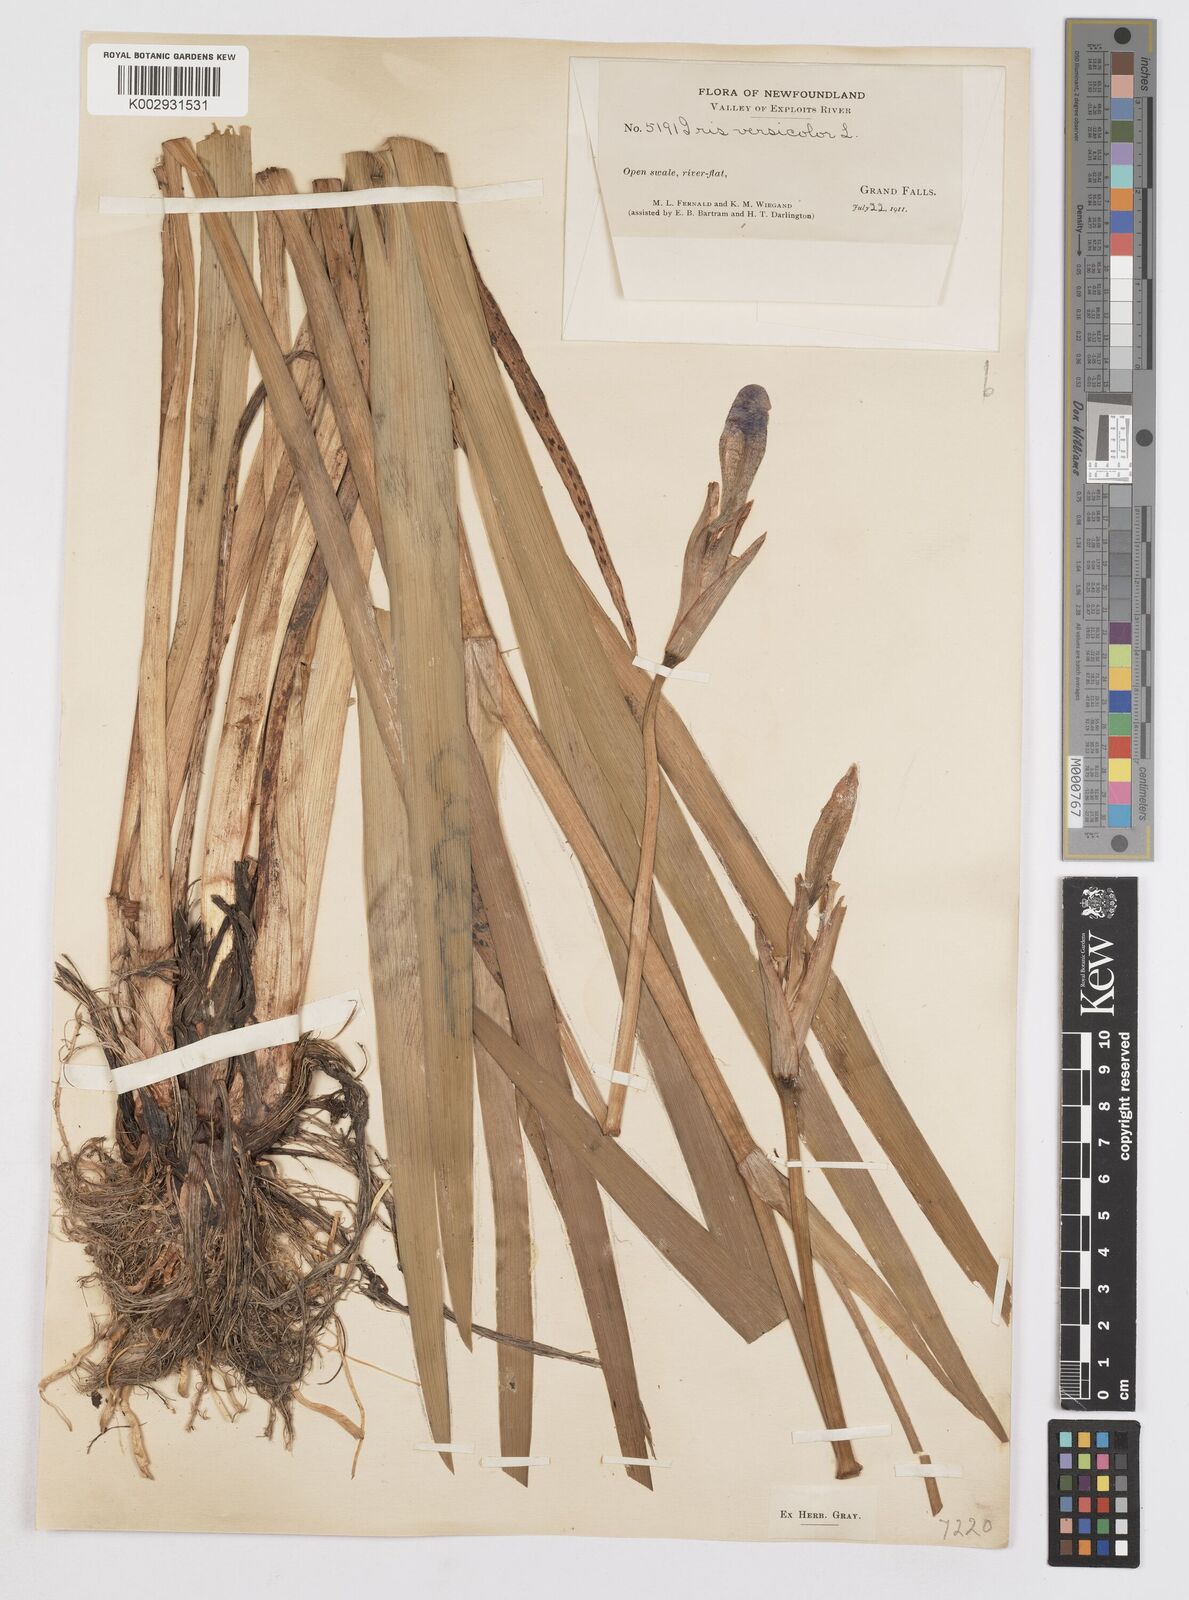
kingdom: Plantae
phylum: Tracheophyta
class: Liliopsida
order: Asparagales
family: Iridaceae
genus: Iris
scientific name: Iris versicolor
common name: Purple iris
